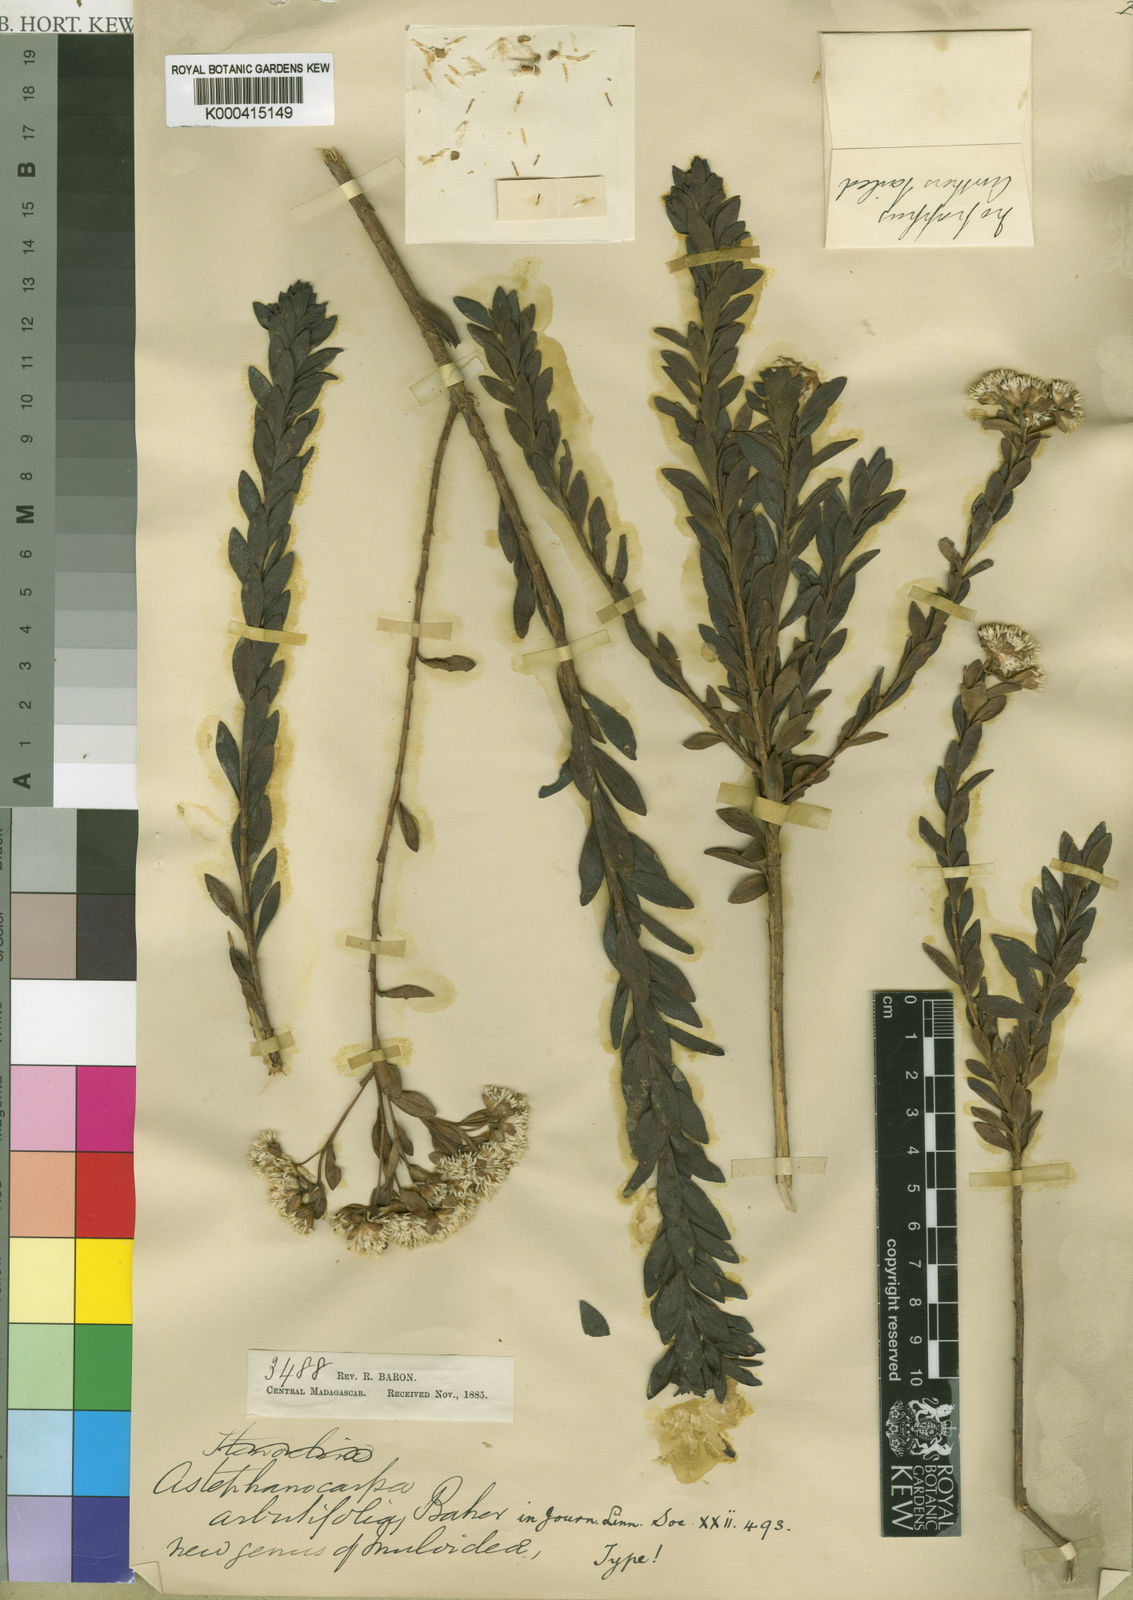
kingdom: Plantae
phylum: Tracheophyta
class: Magnoliopsida
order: Asterales
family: Asteraceae
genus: Syncephalum
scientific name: Syncephalum arbutifolium
